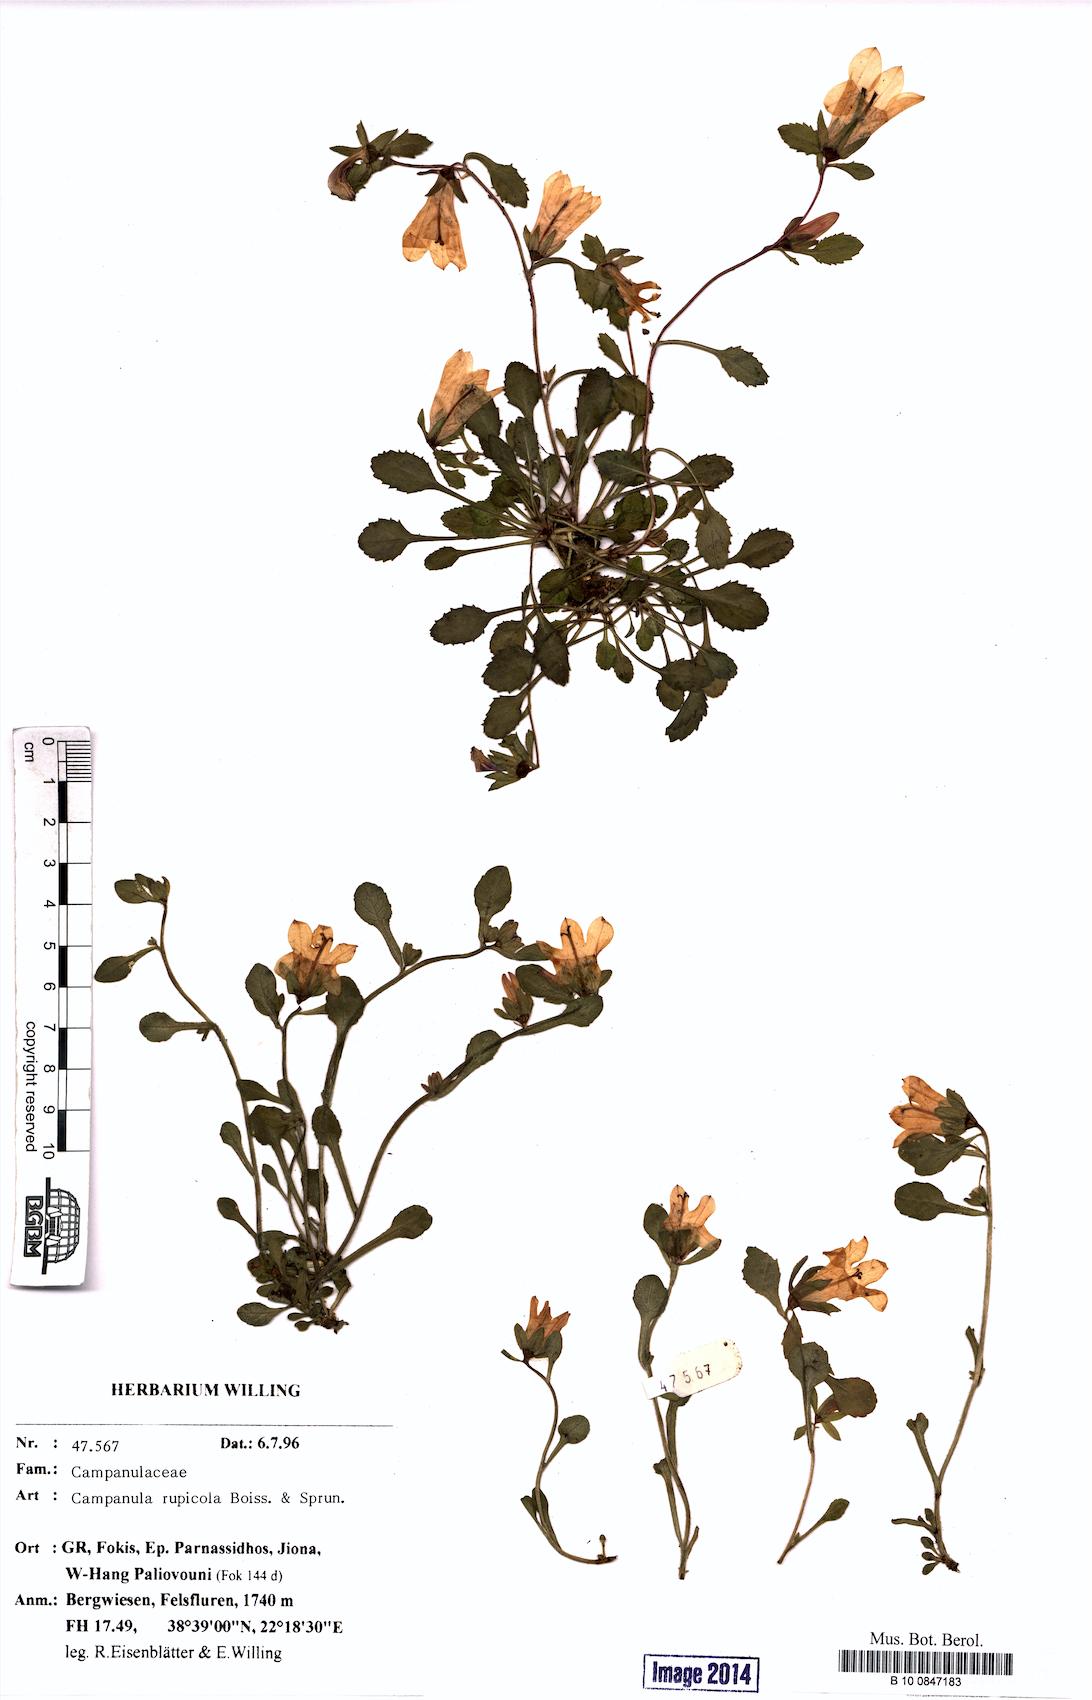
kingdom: Plantae
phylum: Tracheophyta
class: Magnoliopsida
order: Asterales
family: Campanulaceae
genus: Campanula
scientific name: Campanula rupicola
